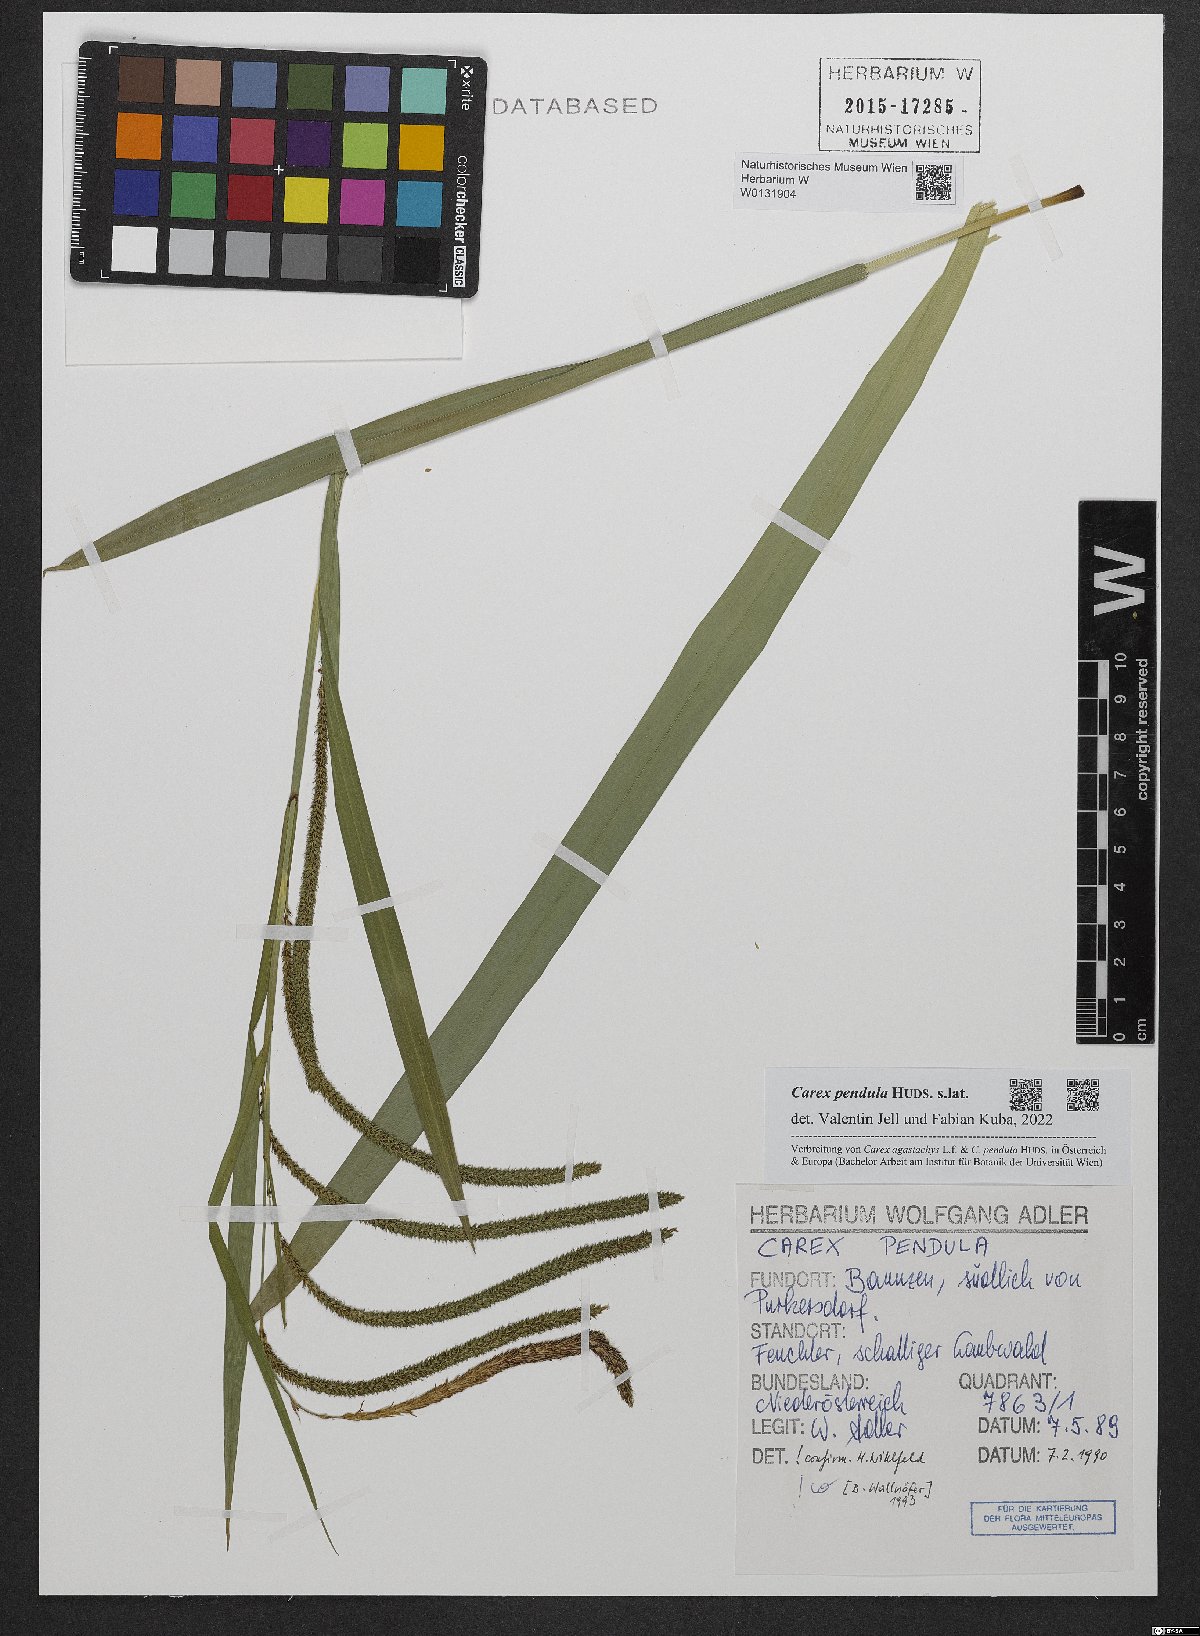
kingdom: Plantae
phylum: Tracheophyta
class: Liliopsida
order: Poales
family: Cyperaceae
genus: Carex
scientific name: Carex pendula
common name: Pendulous sedge
